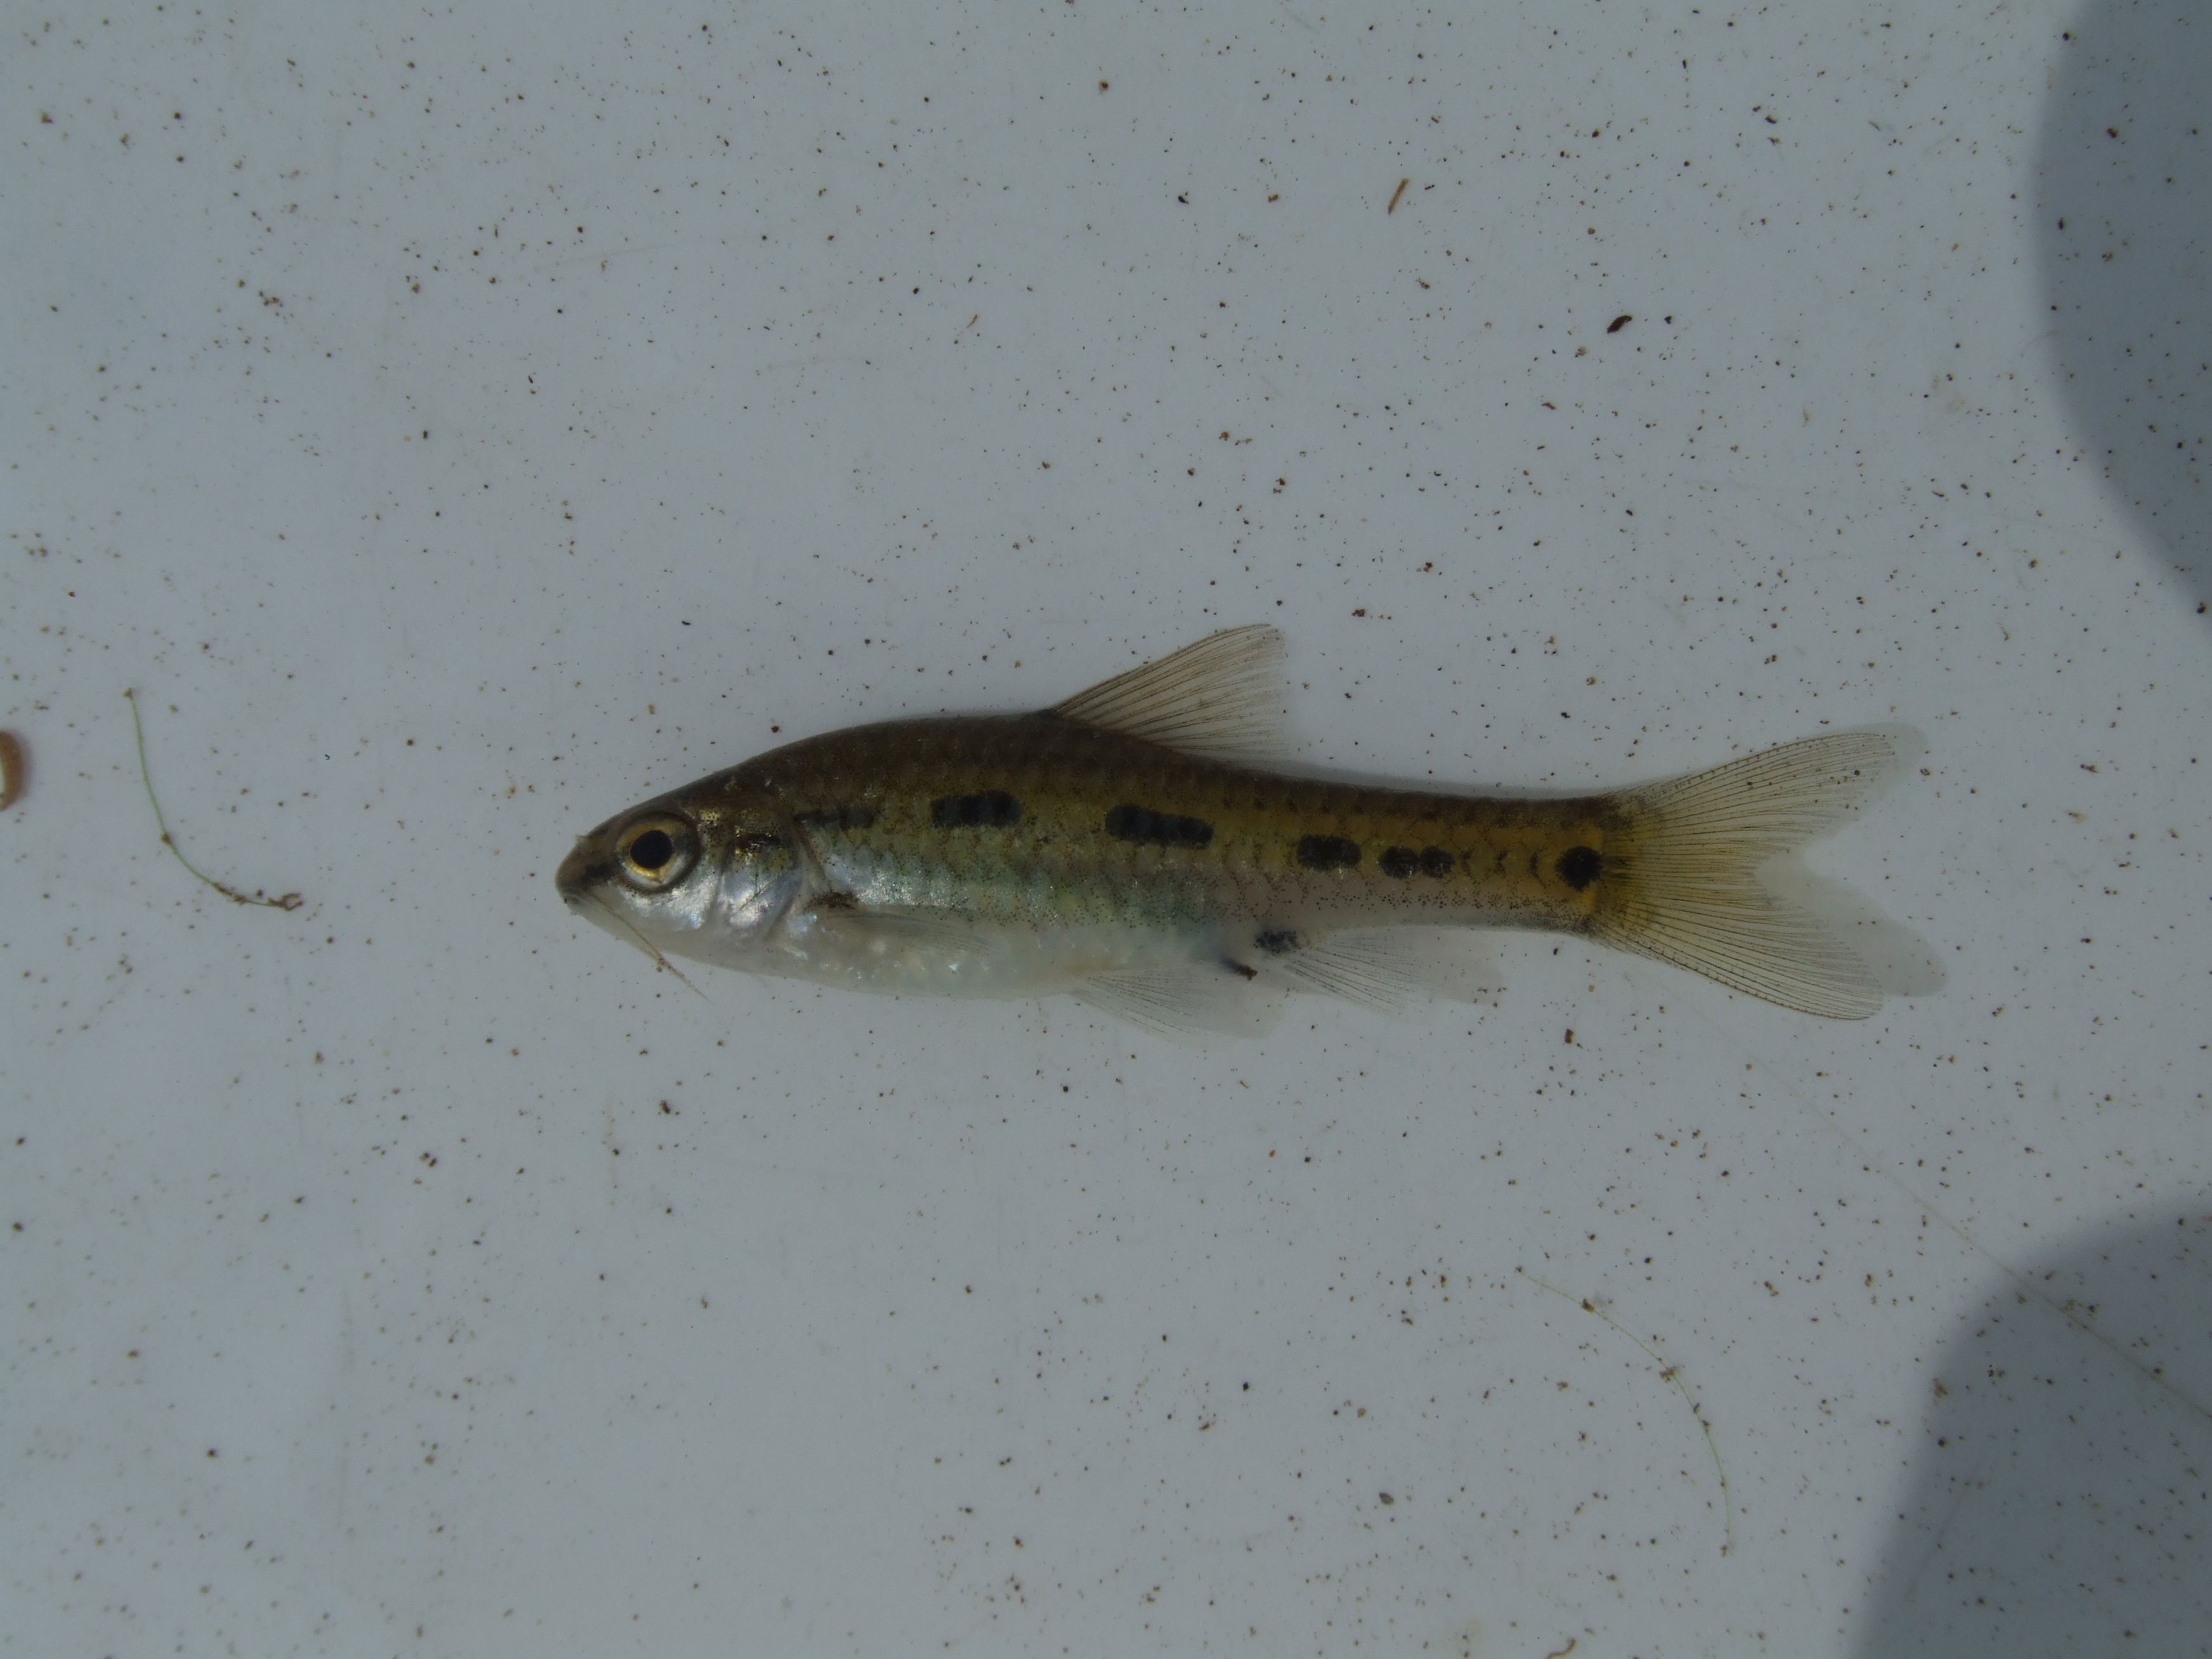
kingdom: Animalia
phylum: Chordata
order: Cypriniformes
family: Cyprinidae
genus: Enteromius
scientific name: Enteromius neefi
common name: Sidespot barb
